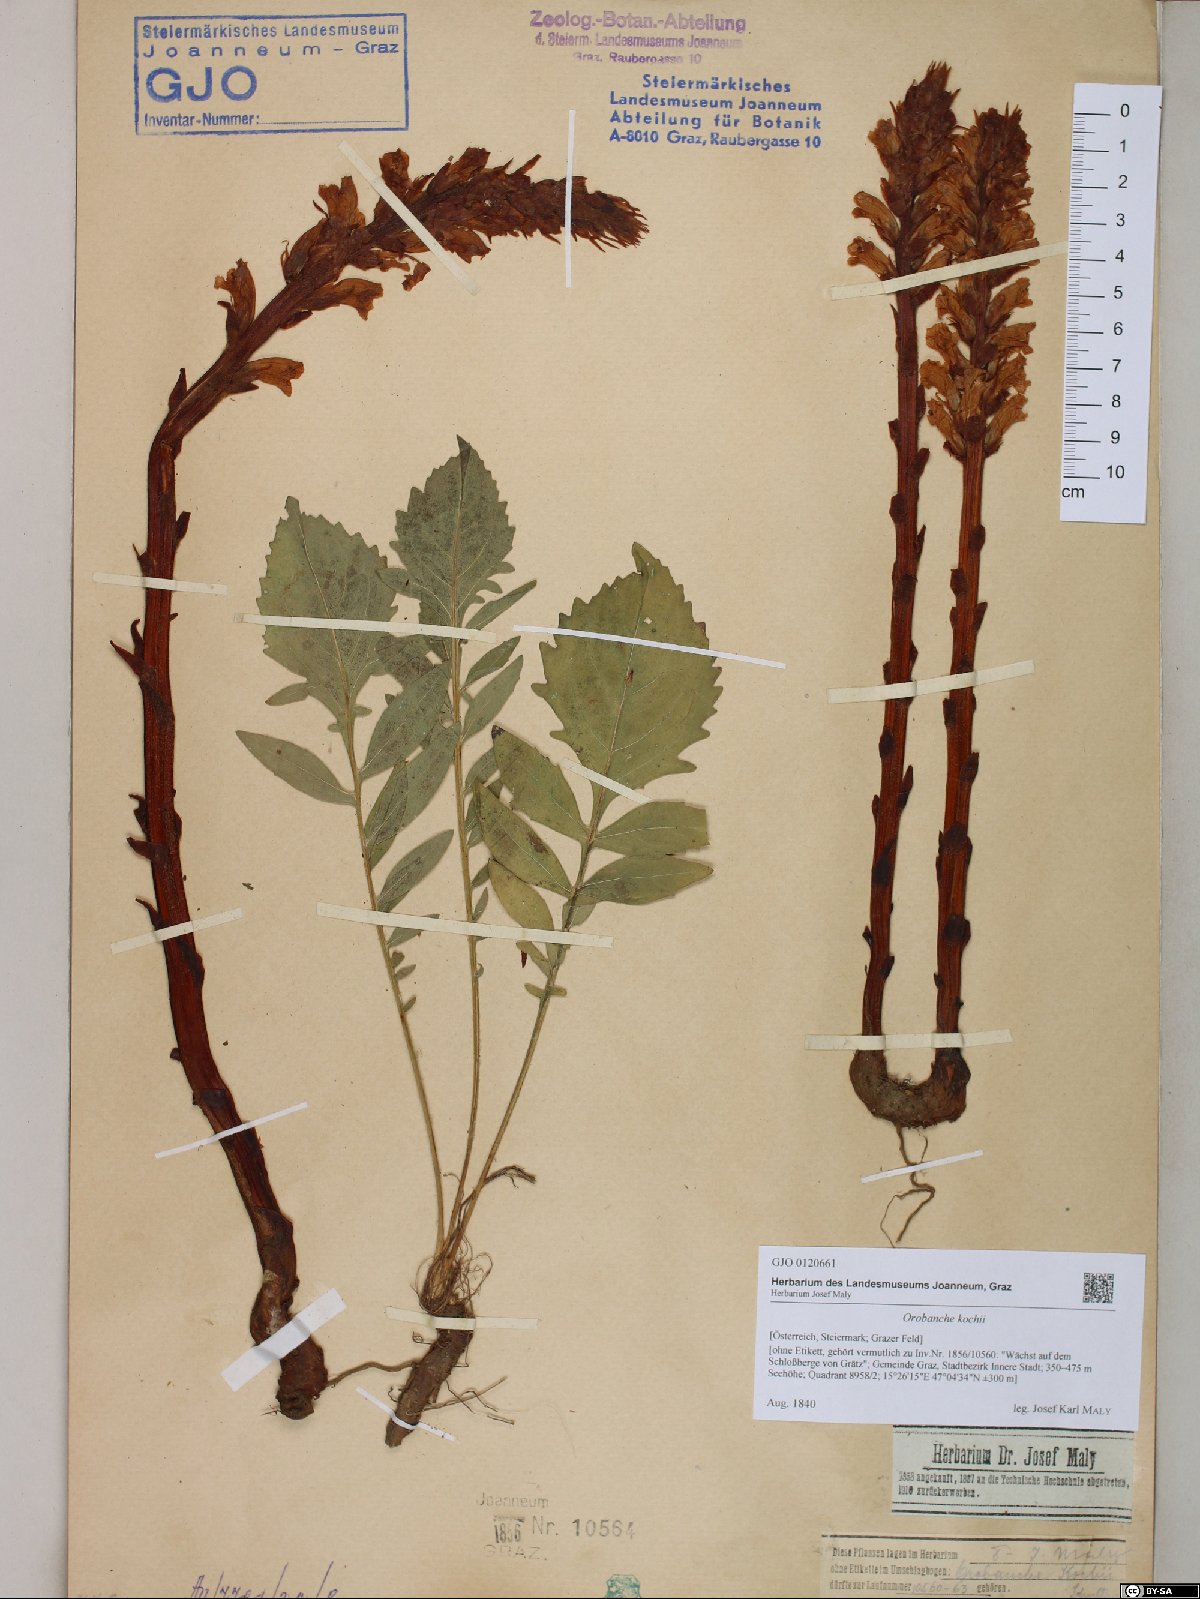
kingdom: Plantae
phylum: Tracheophyta
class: Magnoliopsida
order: Lamiales
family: Orobanchaceae
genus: Orobanche
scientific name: Orobanche centaurina
